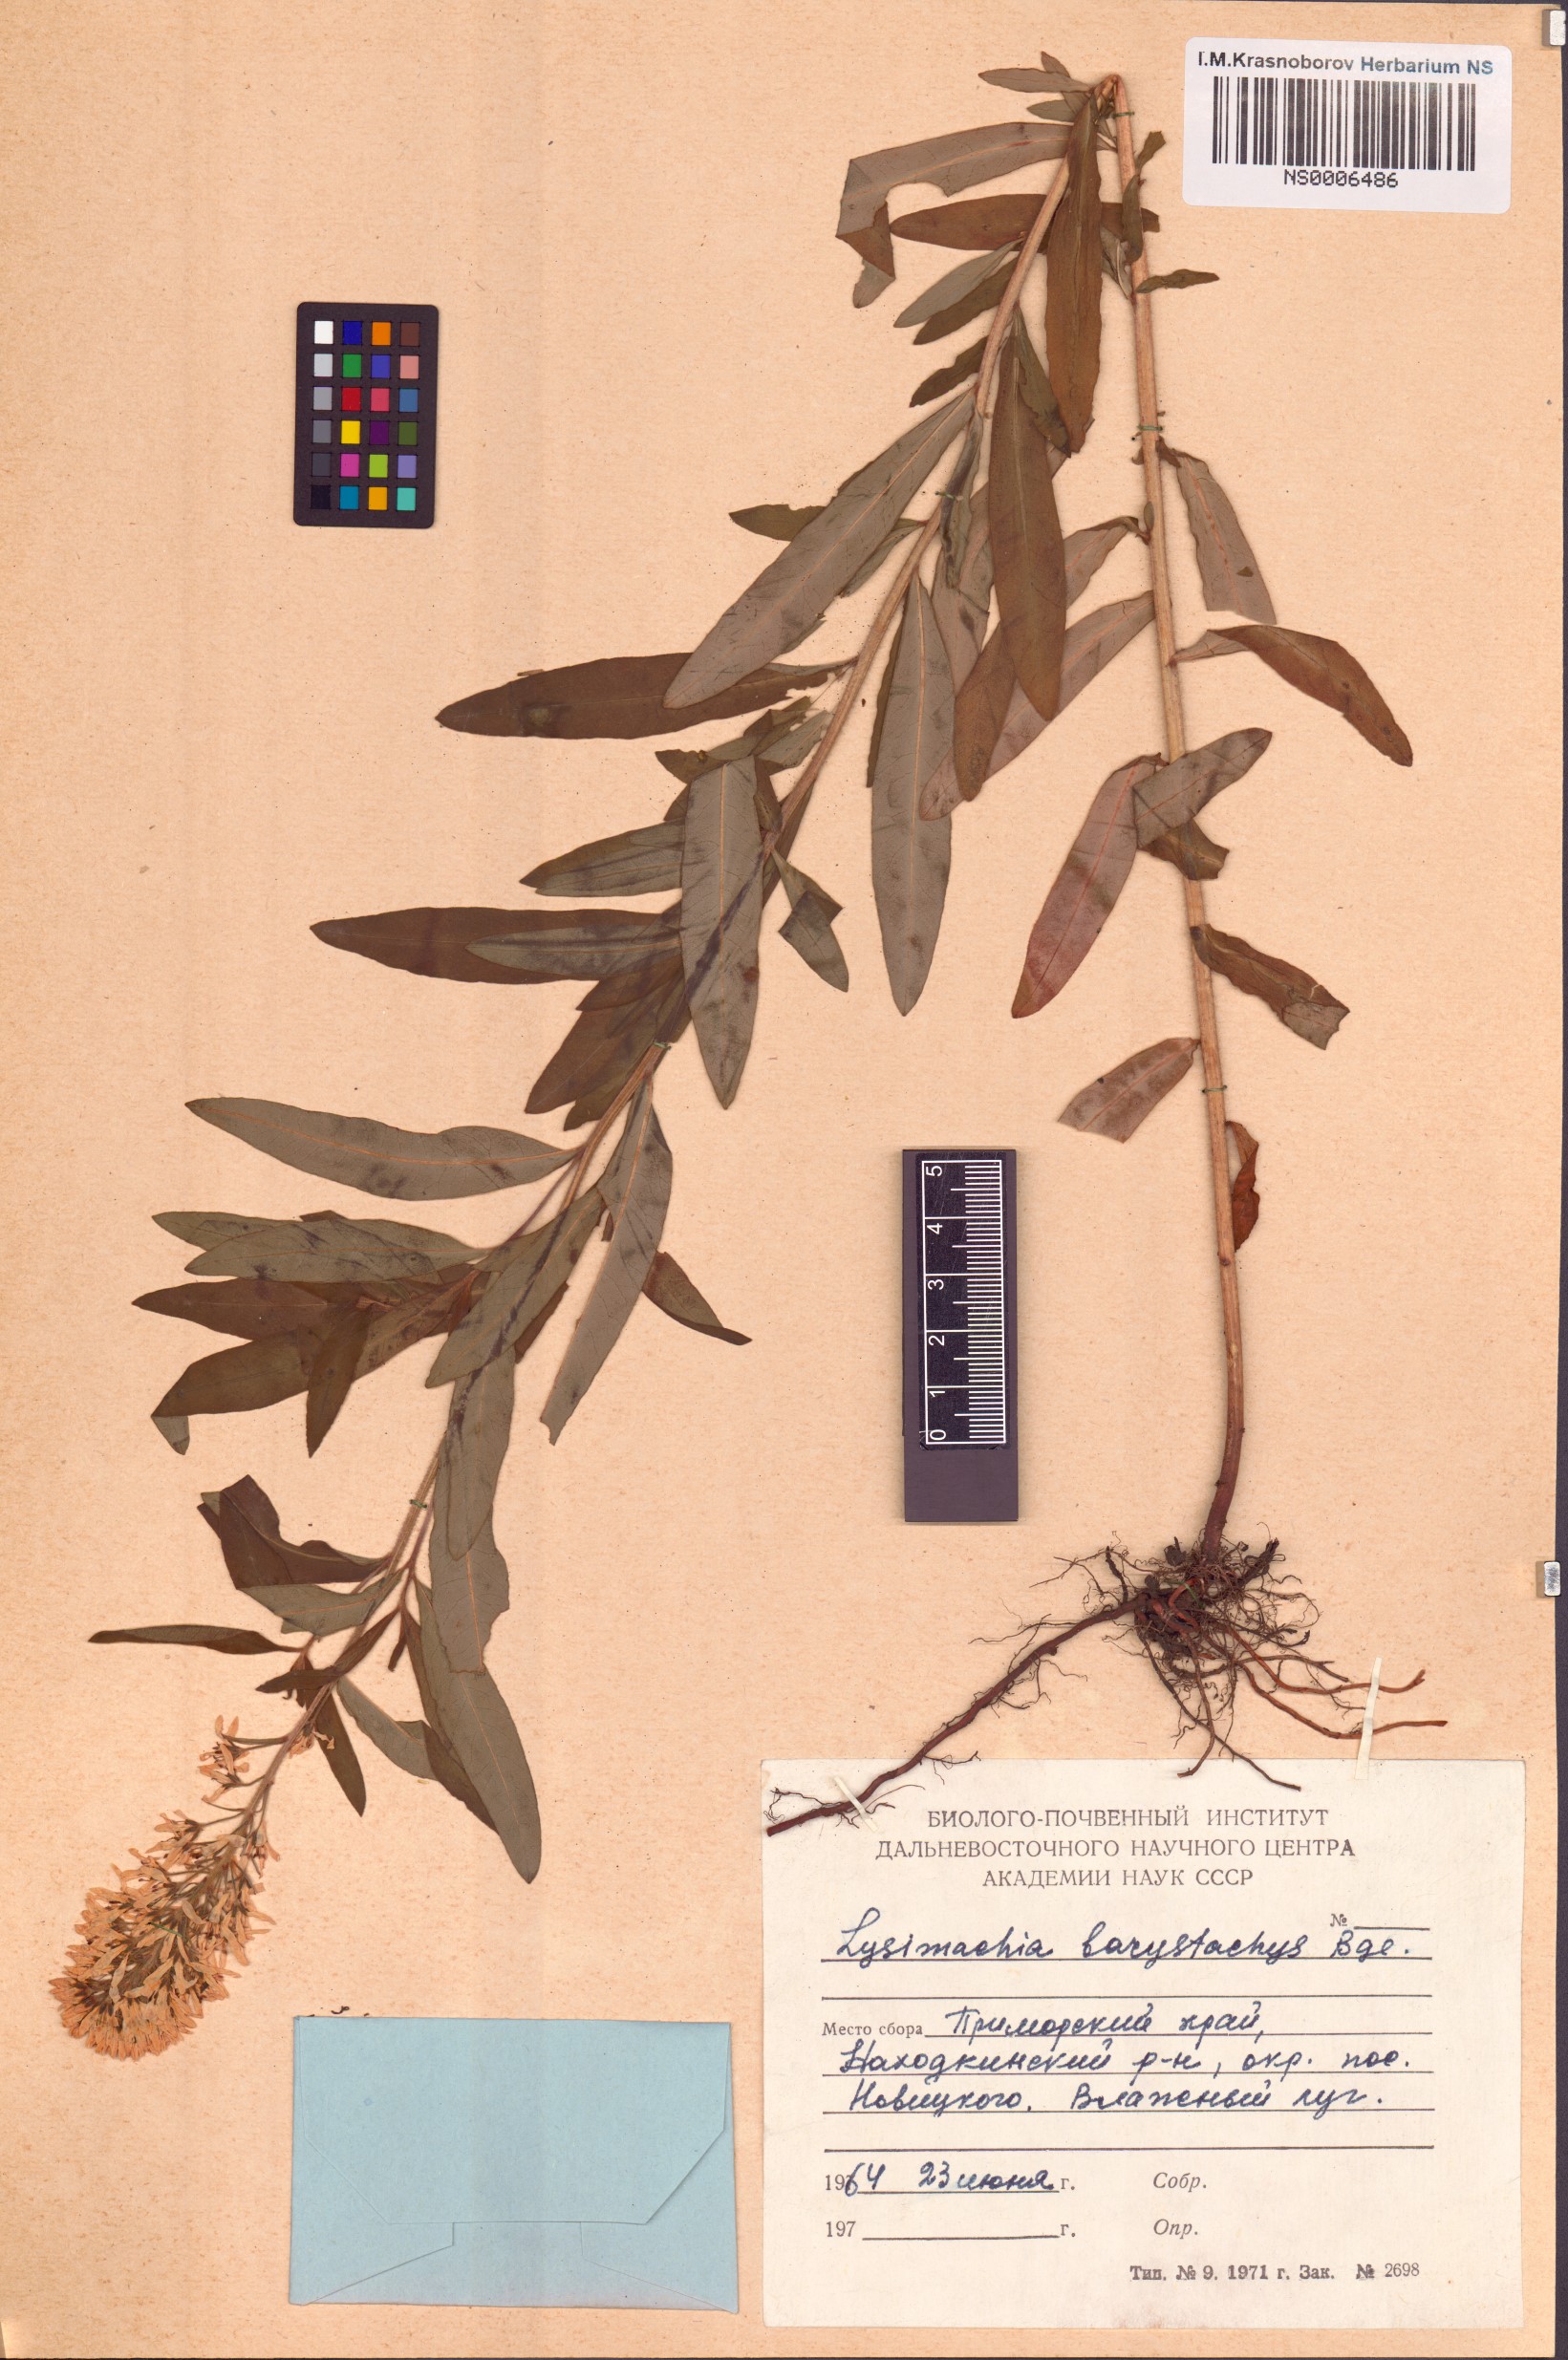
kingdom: Plantae
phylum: Tracheophyta
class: Magnoliopsida
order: Ericales
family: Primulaceae
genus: Lysimachia
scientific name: Lysimachia barystachys
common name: Manchurian yellow loosestrife
